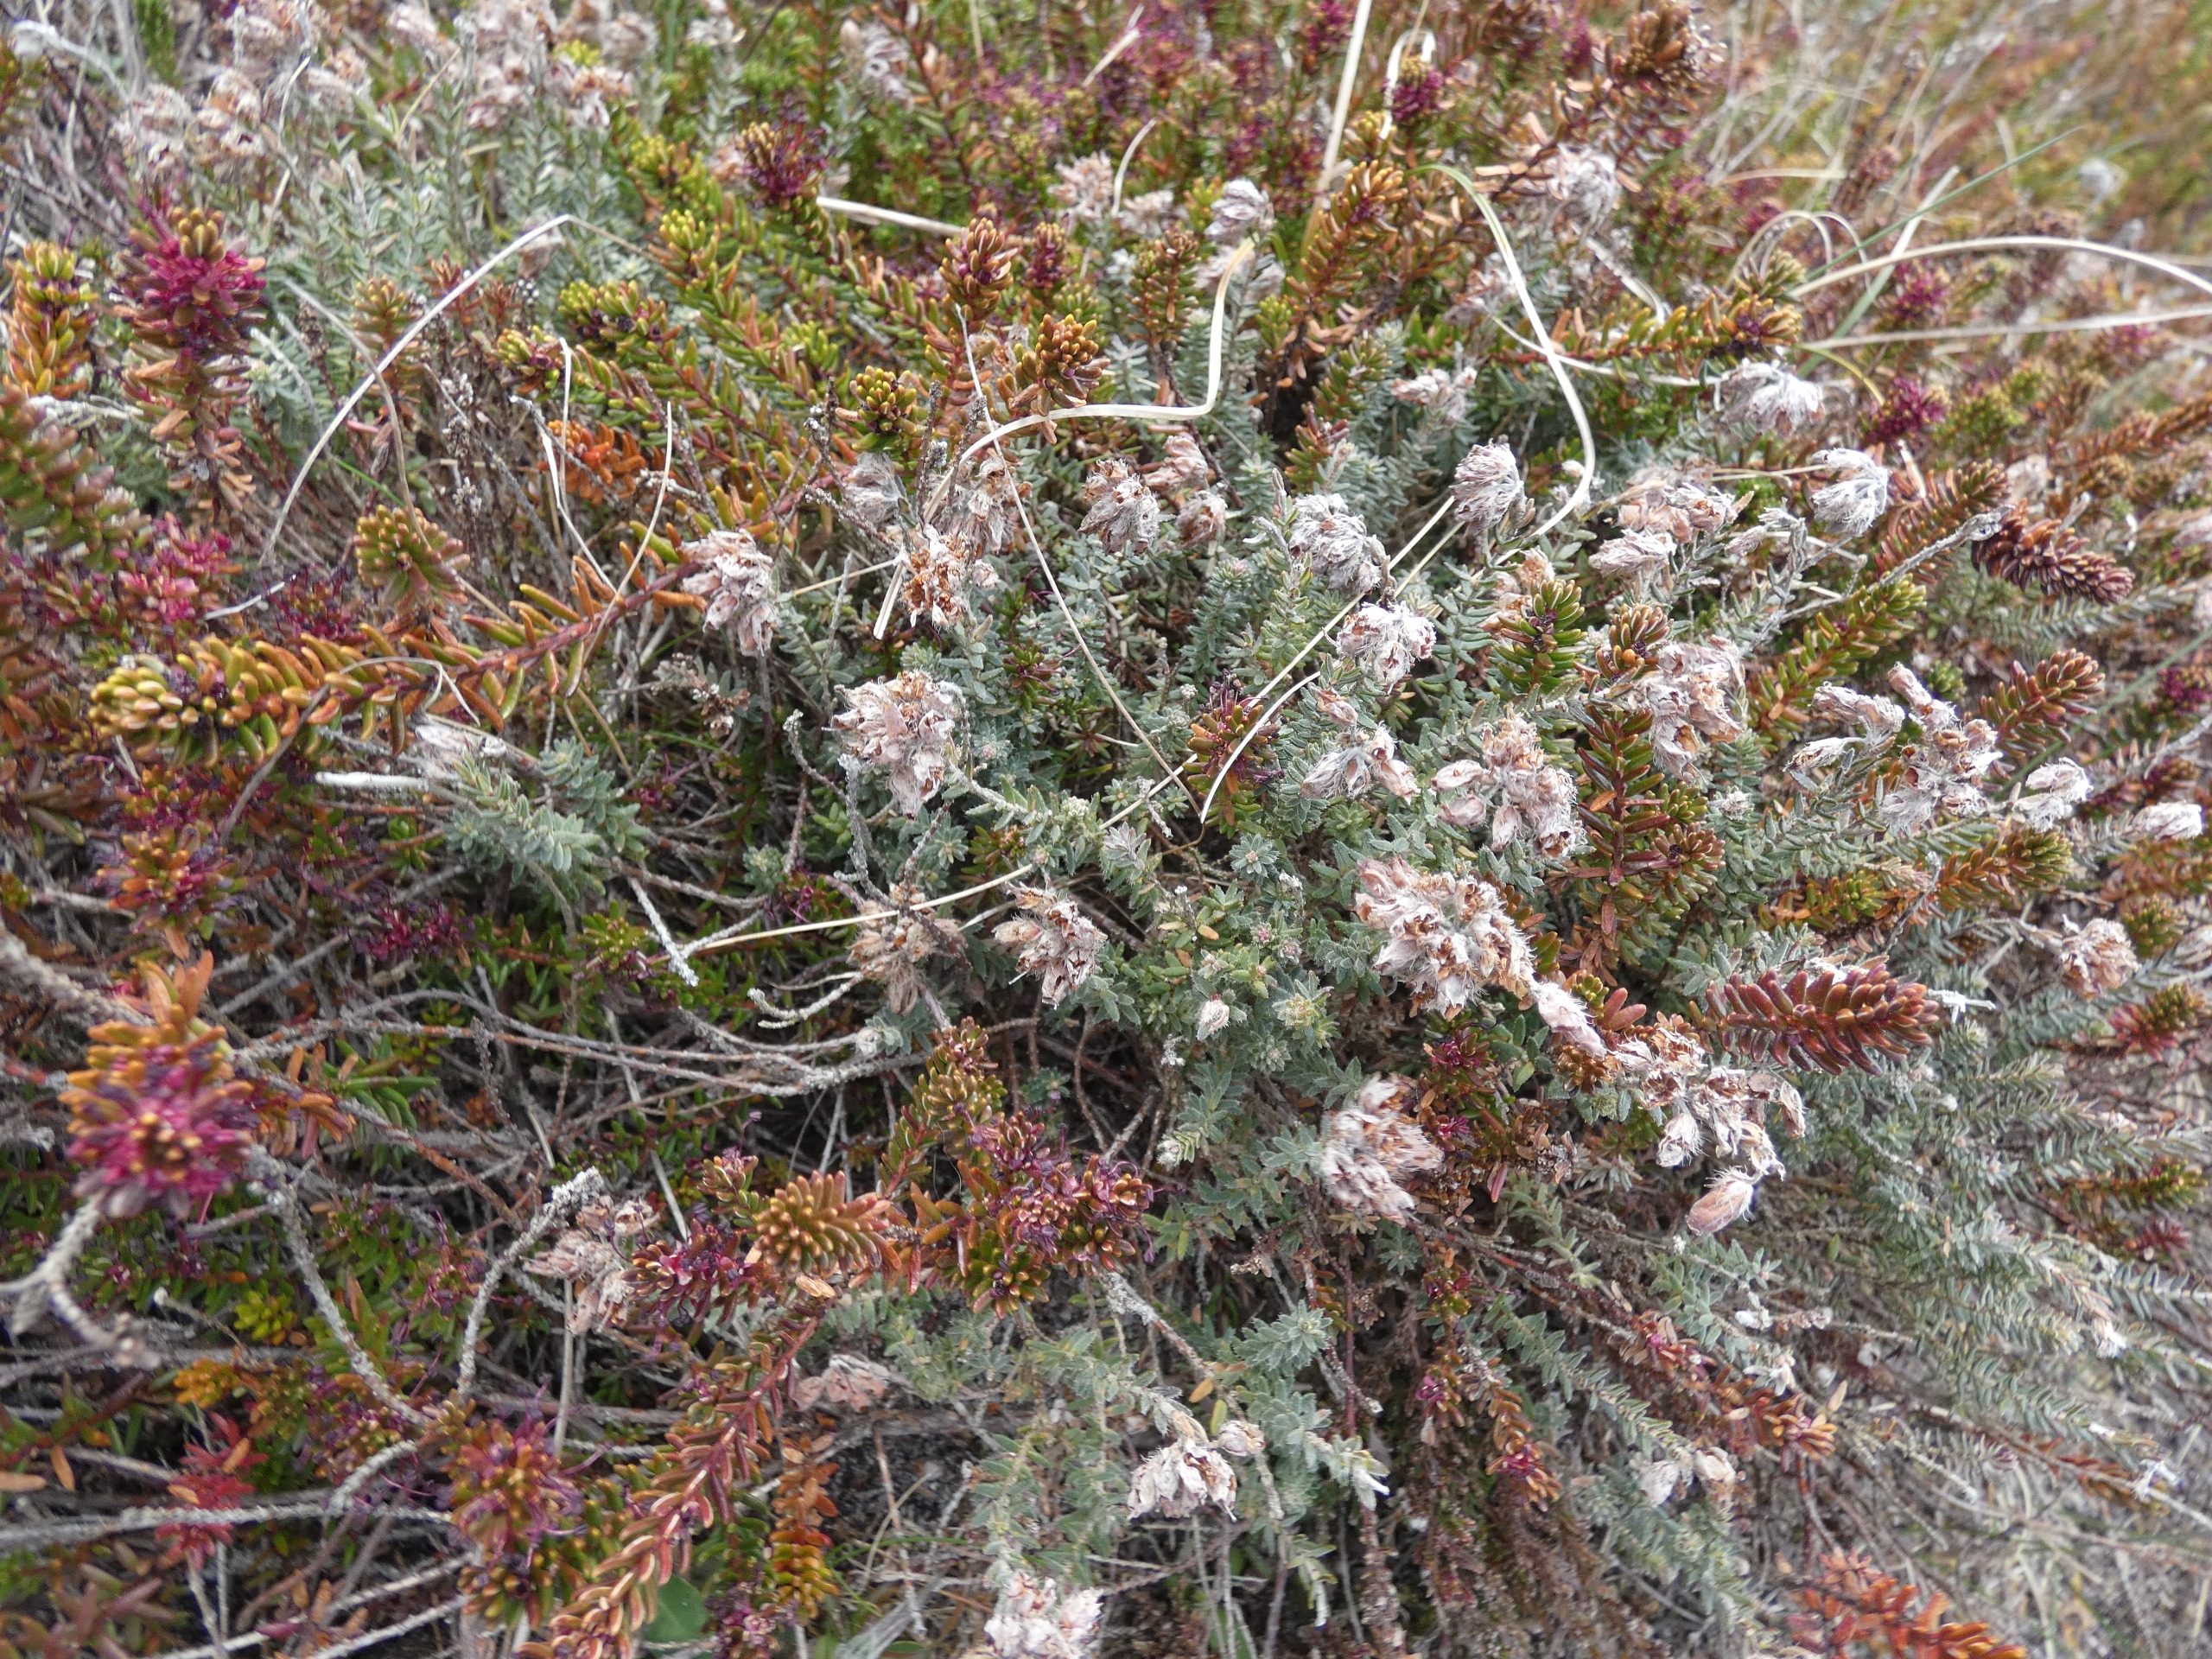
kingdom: Plantae
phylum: Tracheophyta
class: Magnoliopsida
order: Ericales
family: Ericaceae
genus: Erica
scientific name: Erica tetralix
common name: Klokkelyng
